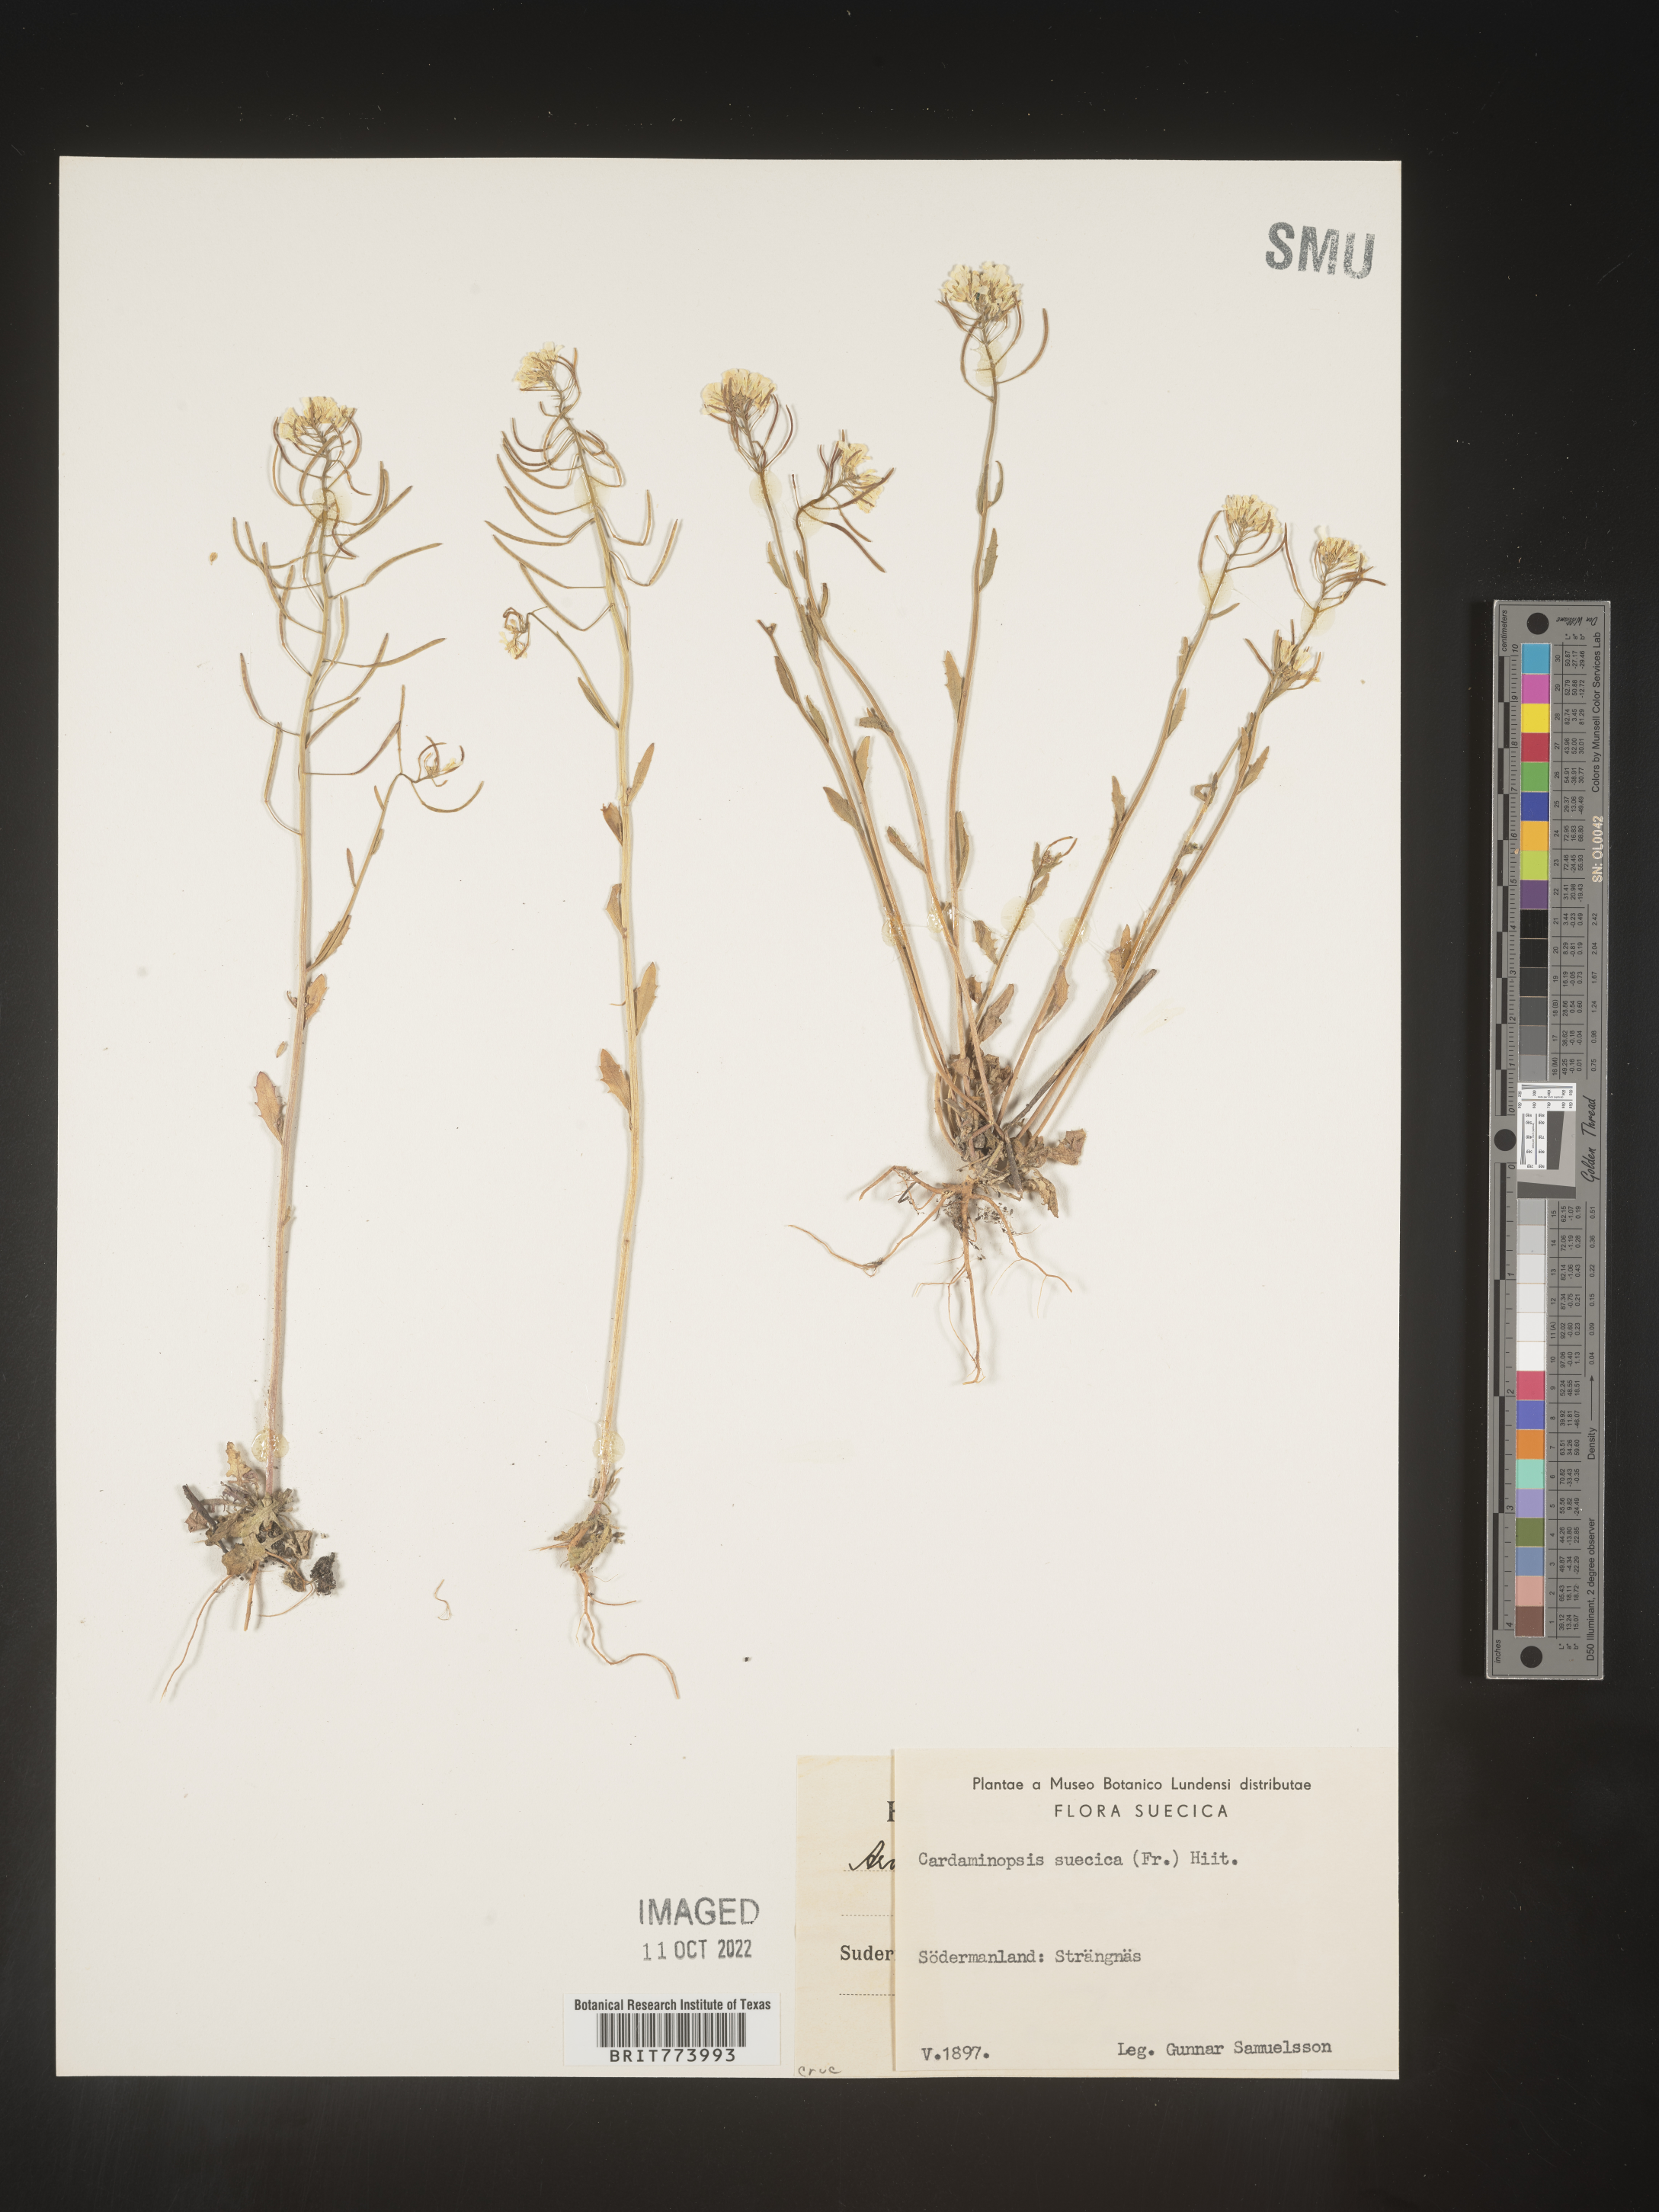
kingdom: Plantae
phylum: Tracheophyta
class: Magnoliopsida
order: Brassicales
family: Brassicaceae
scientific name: Brassicaceae
